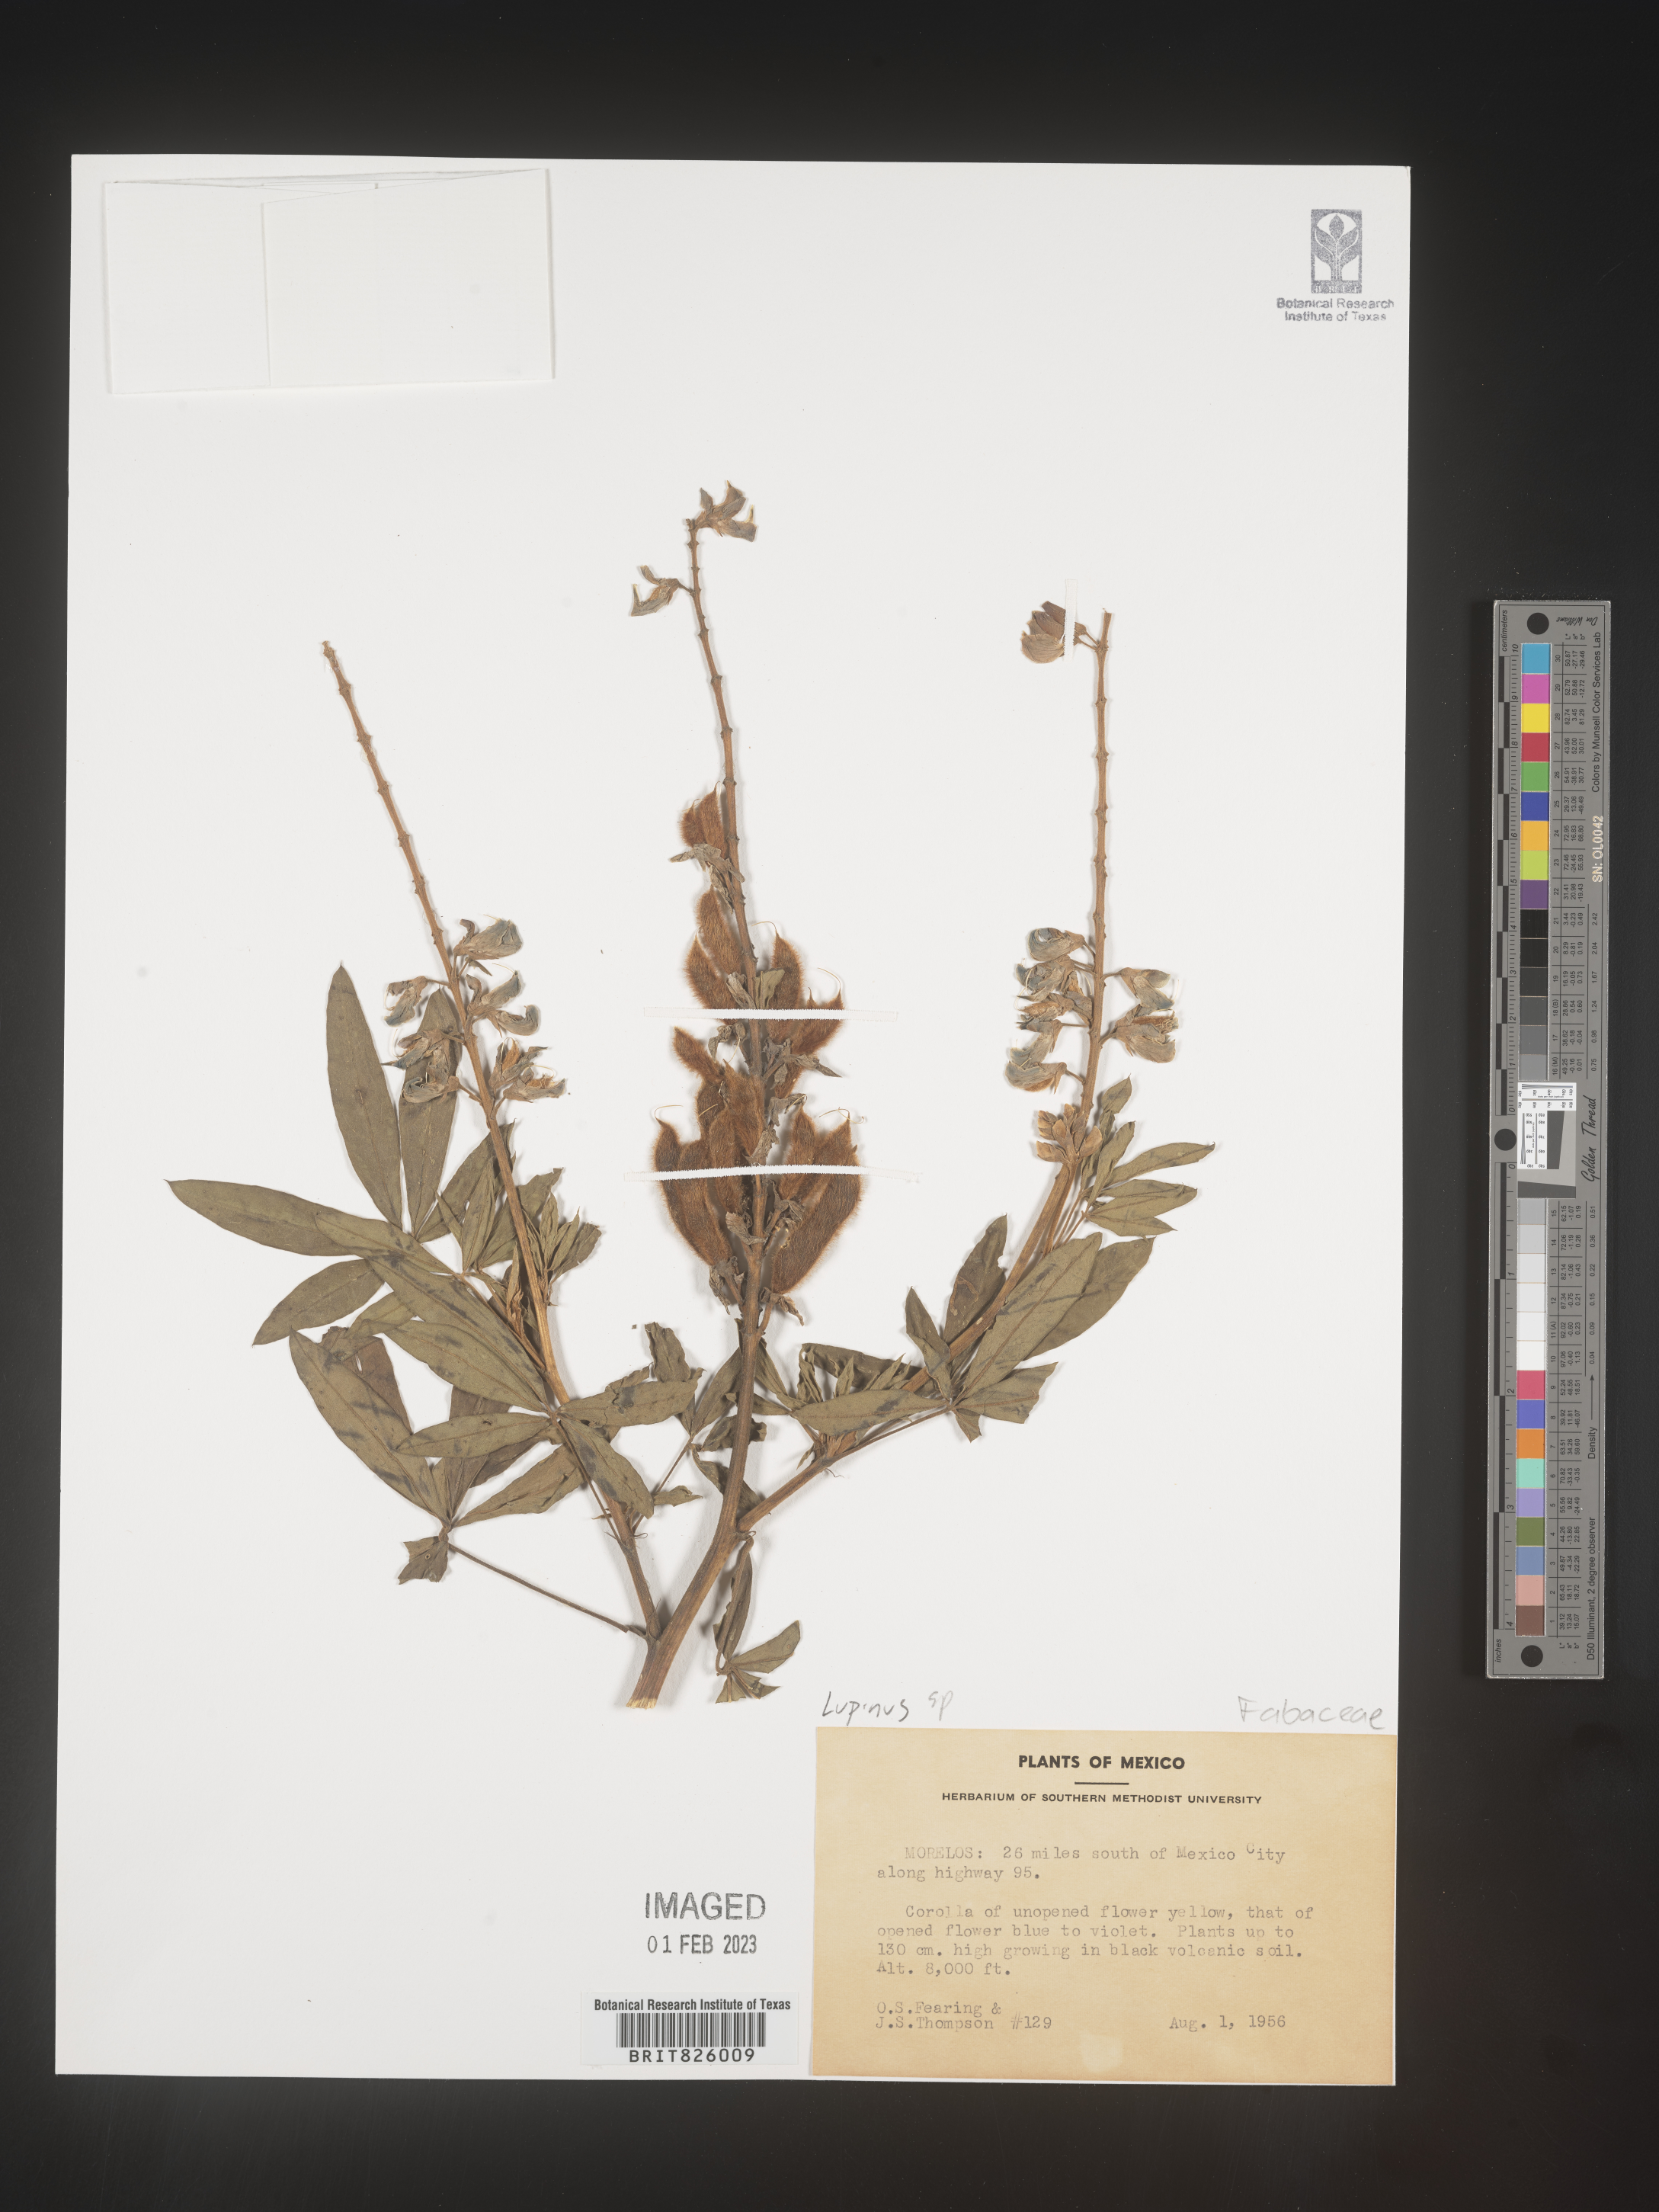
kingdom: Plantae
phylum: Tracheophyta
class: Magnoliopsida
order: Fabales
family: Fabaceae
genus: Lupinus
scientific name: Lupinus
